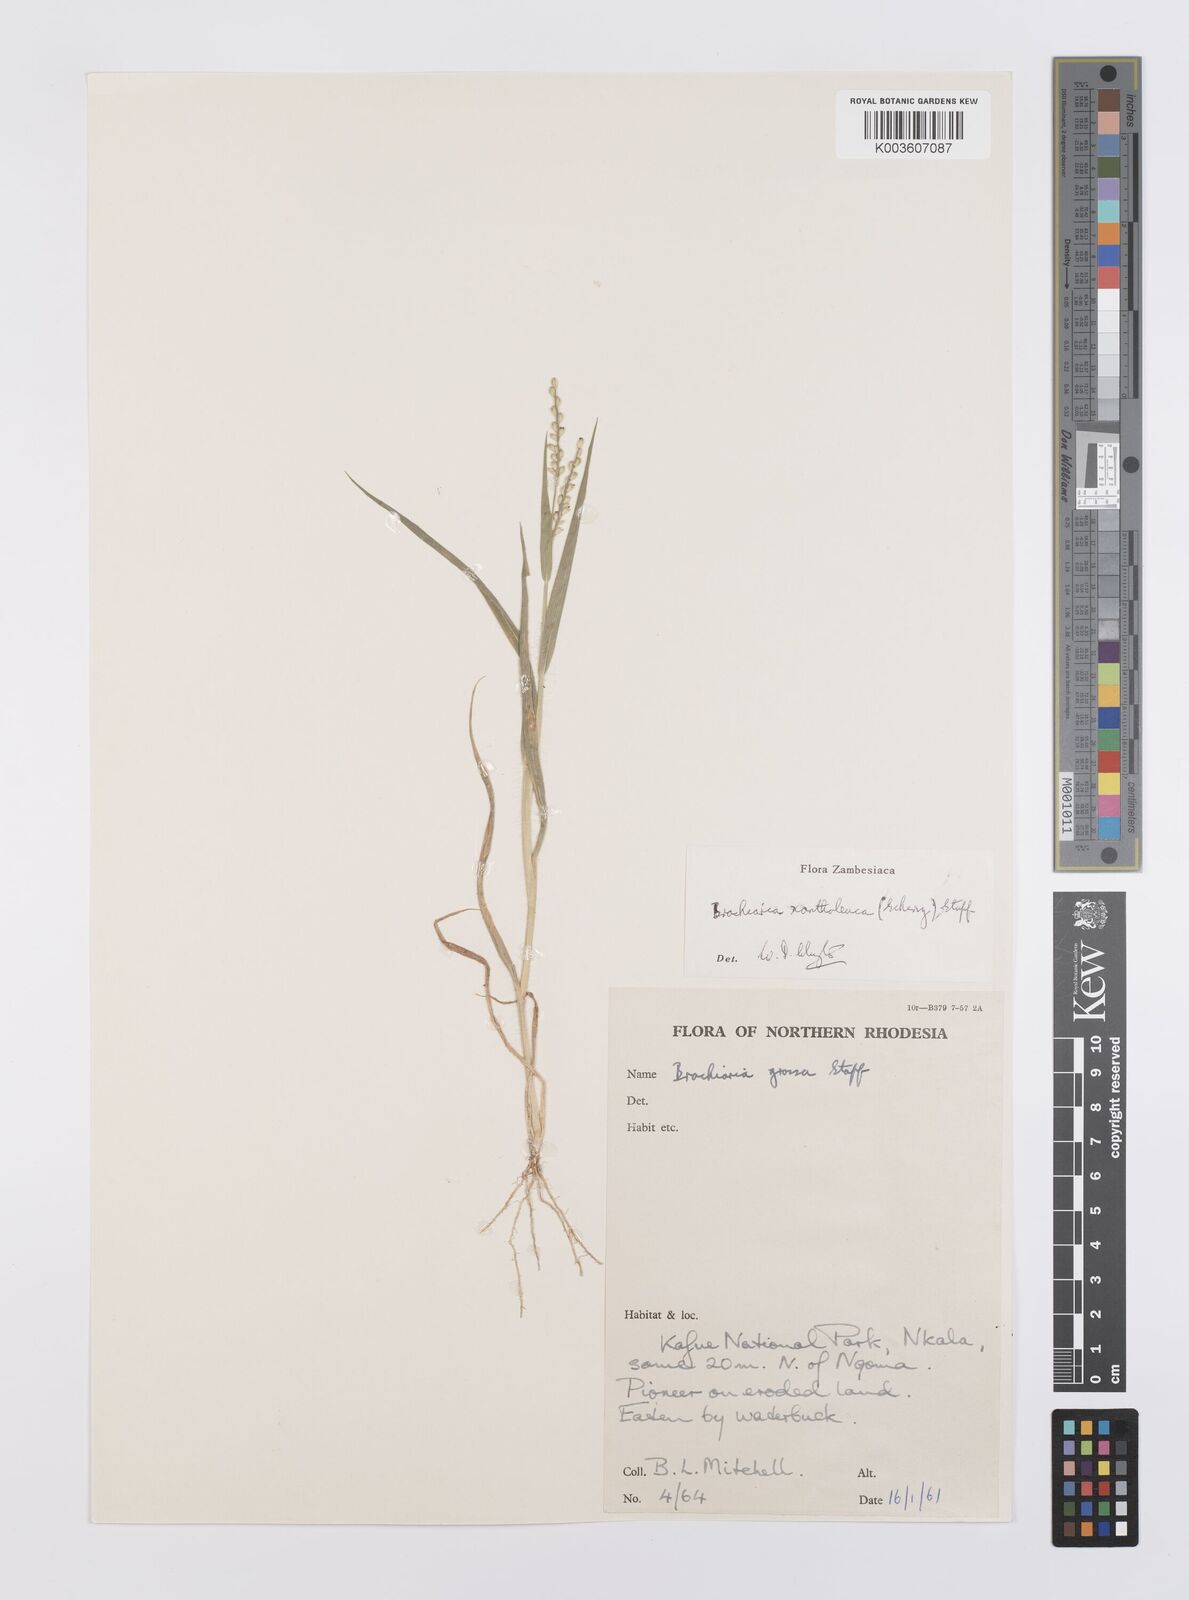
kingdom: Plantae
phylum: Tracheophyta
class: Liliopsida
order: Poales
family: Poaceae
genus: Urochloa
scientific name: Urochloa xantholeuca
